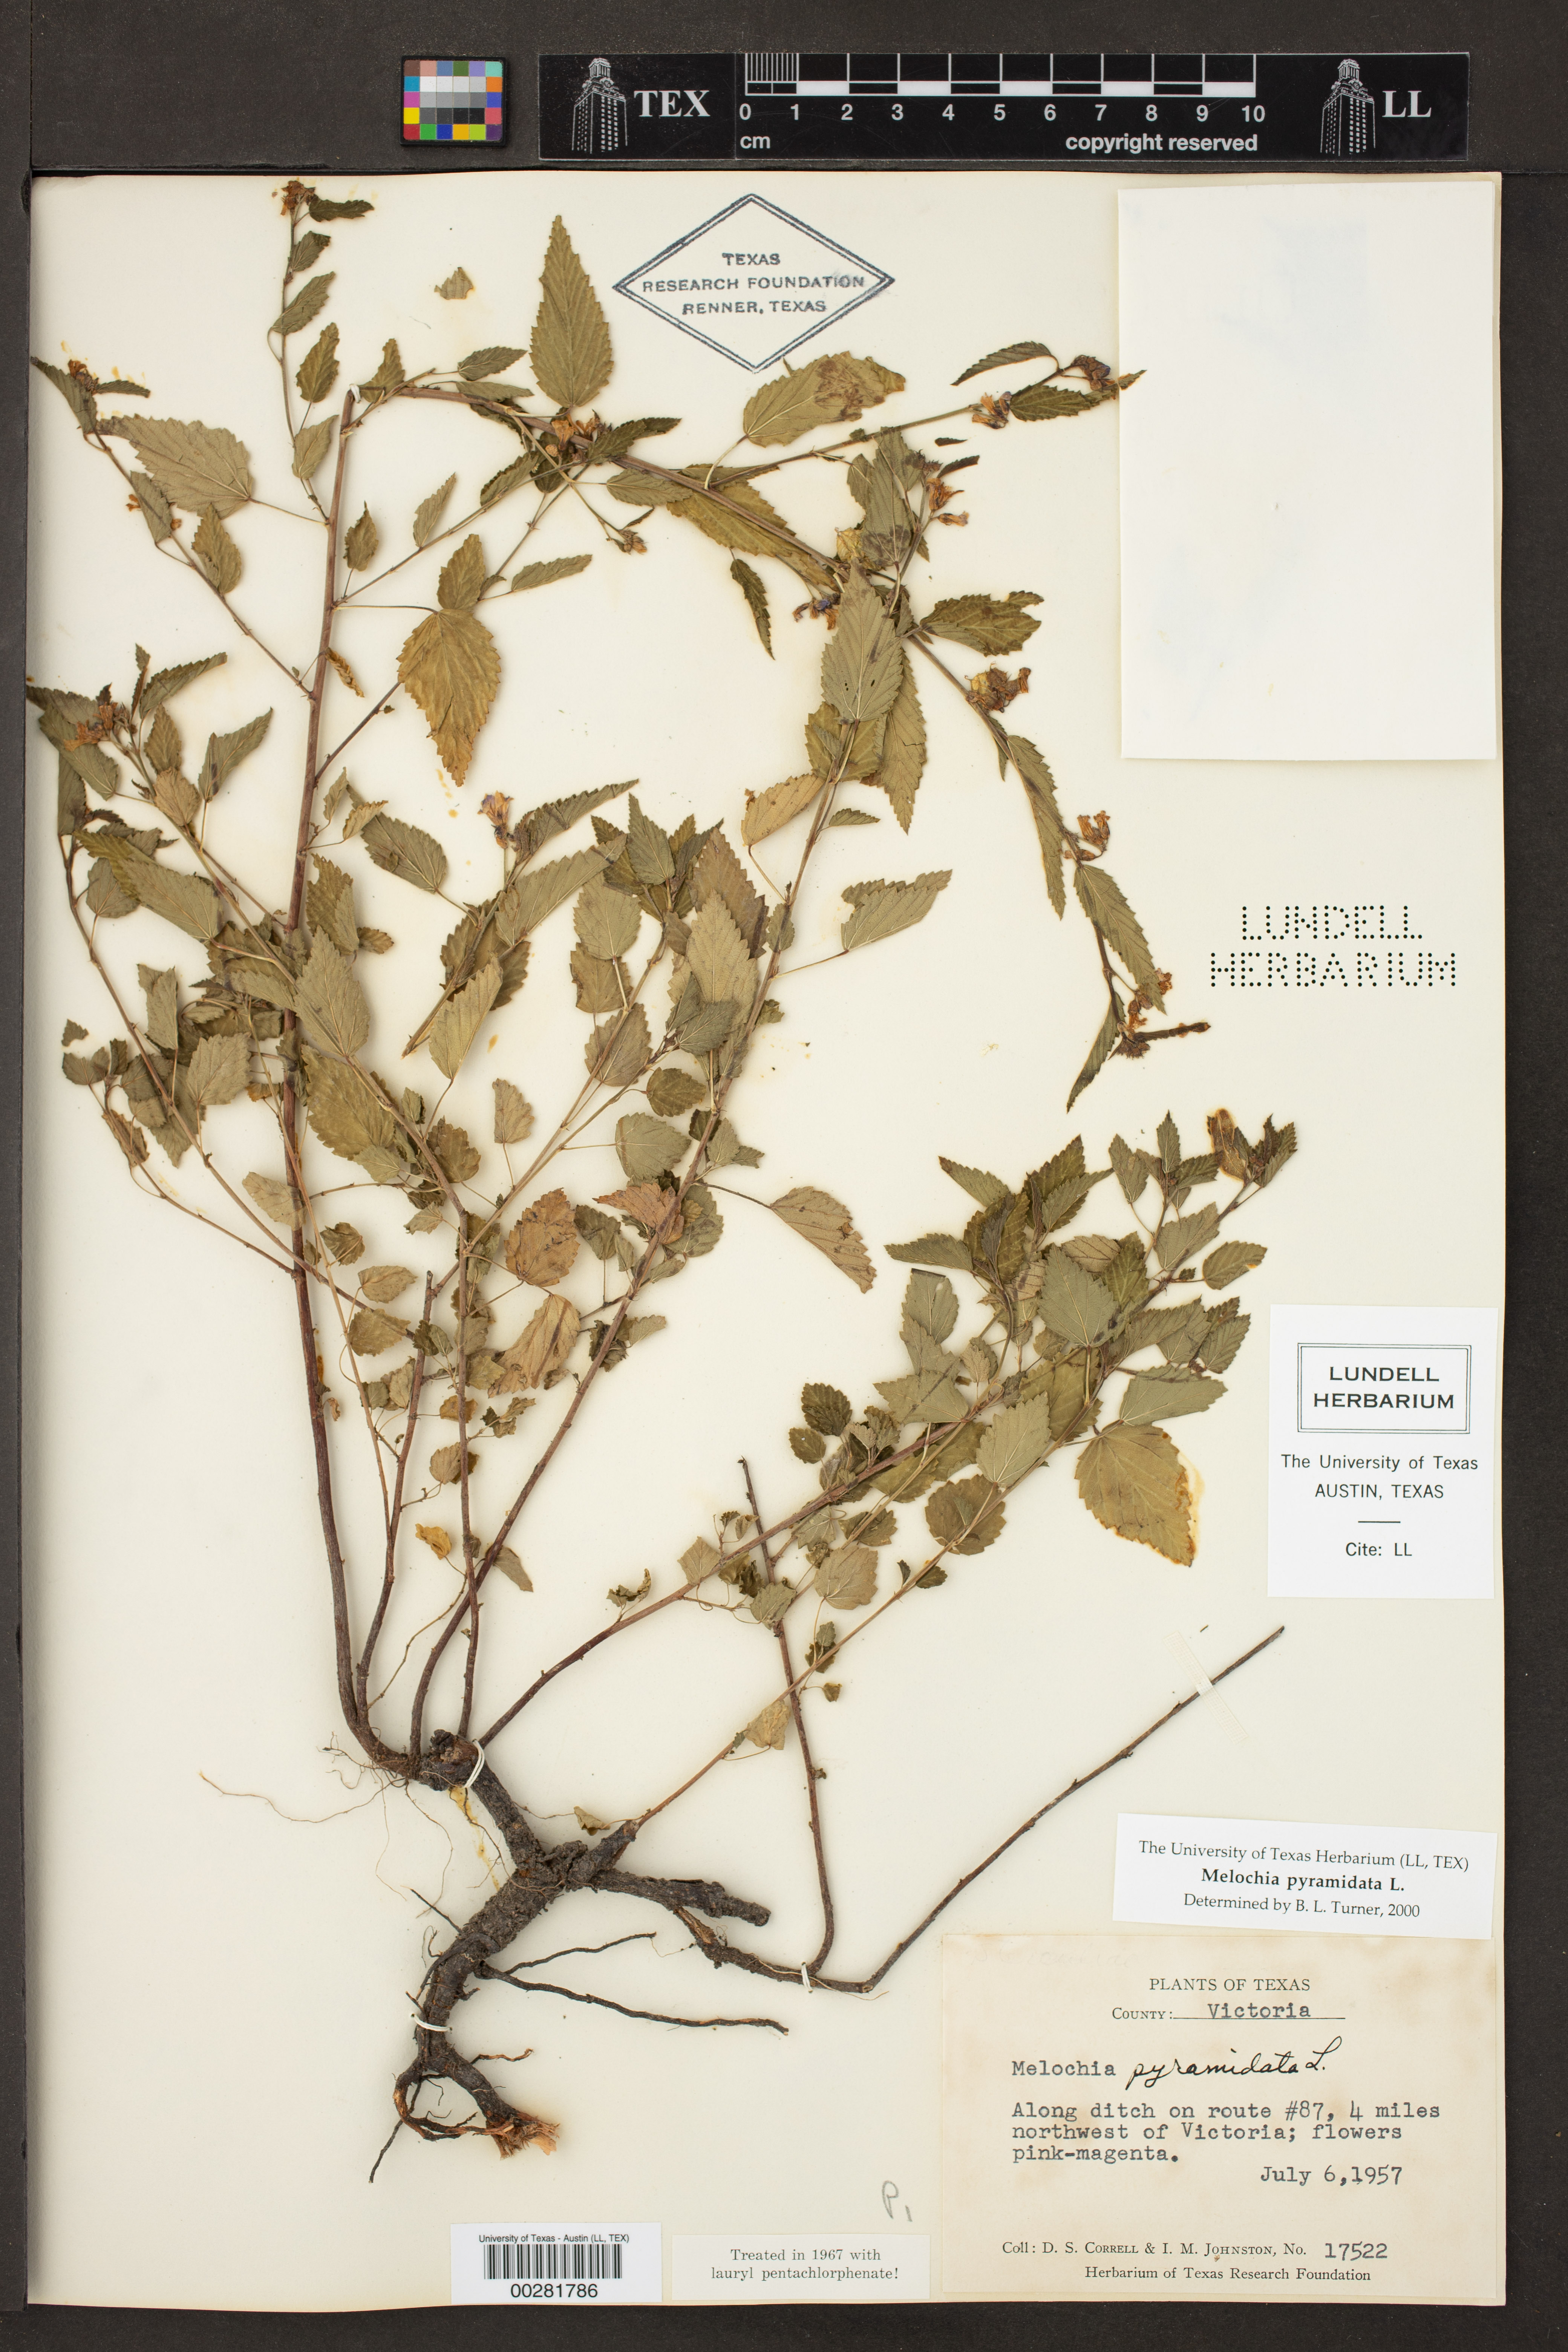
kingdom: Plantae
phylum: Tracheophyta
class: Magnoliopsida
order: Malvales
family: Malvaceae
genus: Melochia
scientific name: Melochia pyramidata
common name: Pyramidflower
